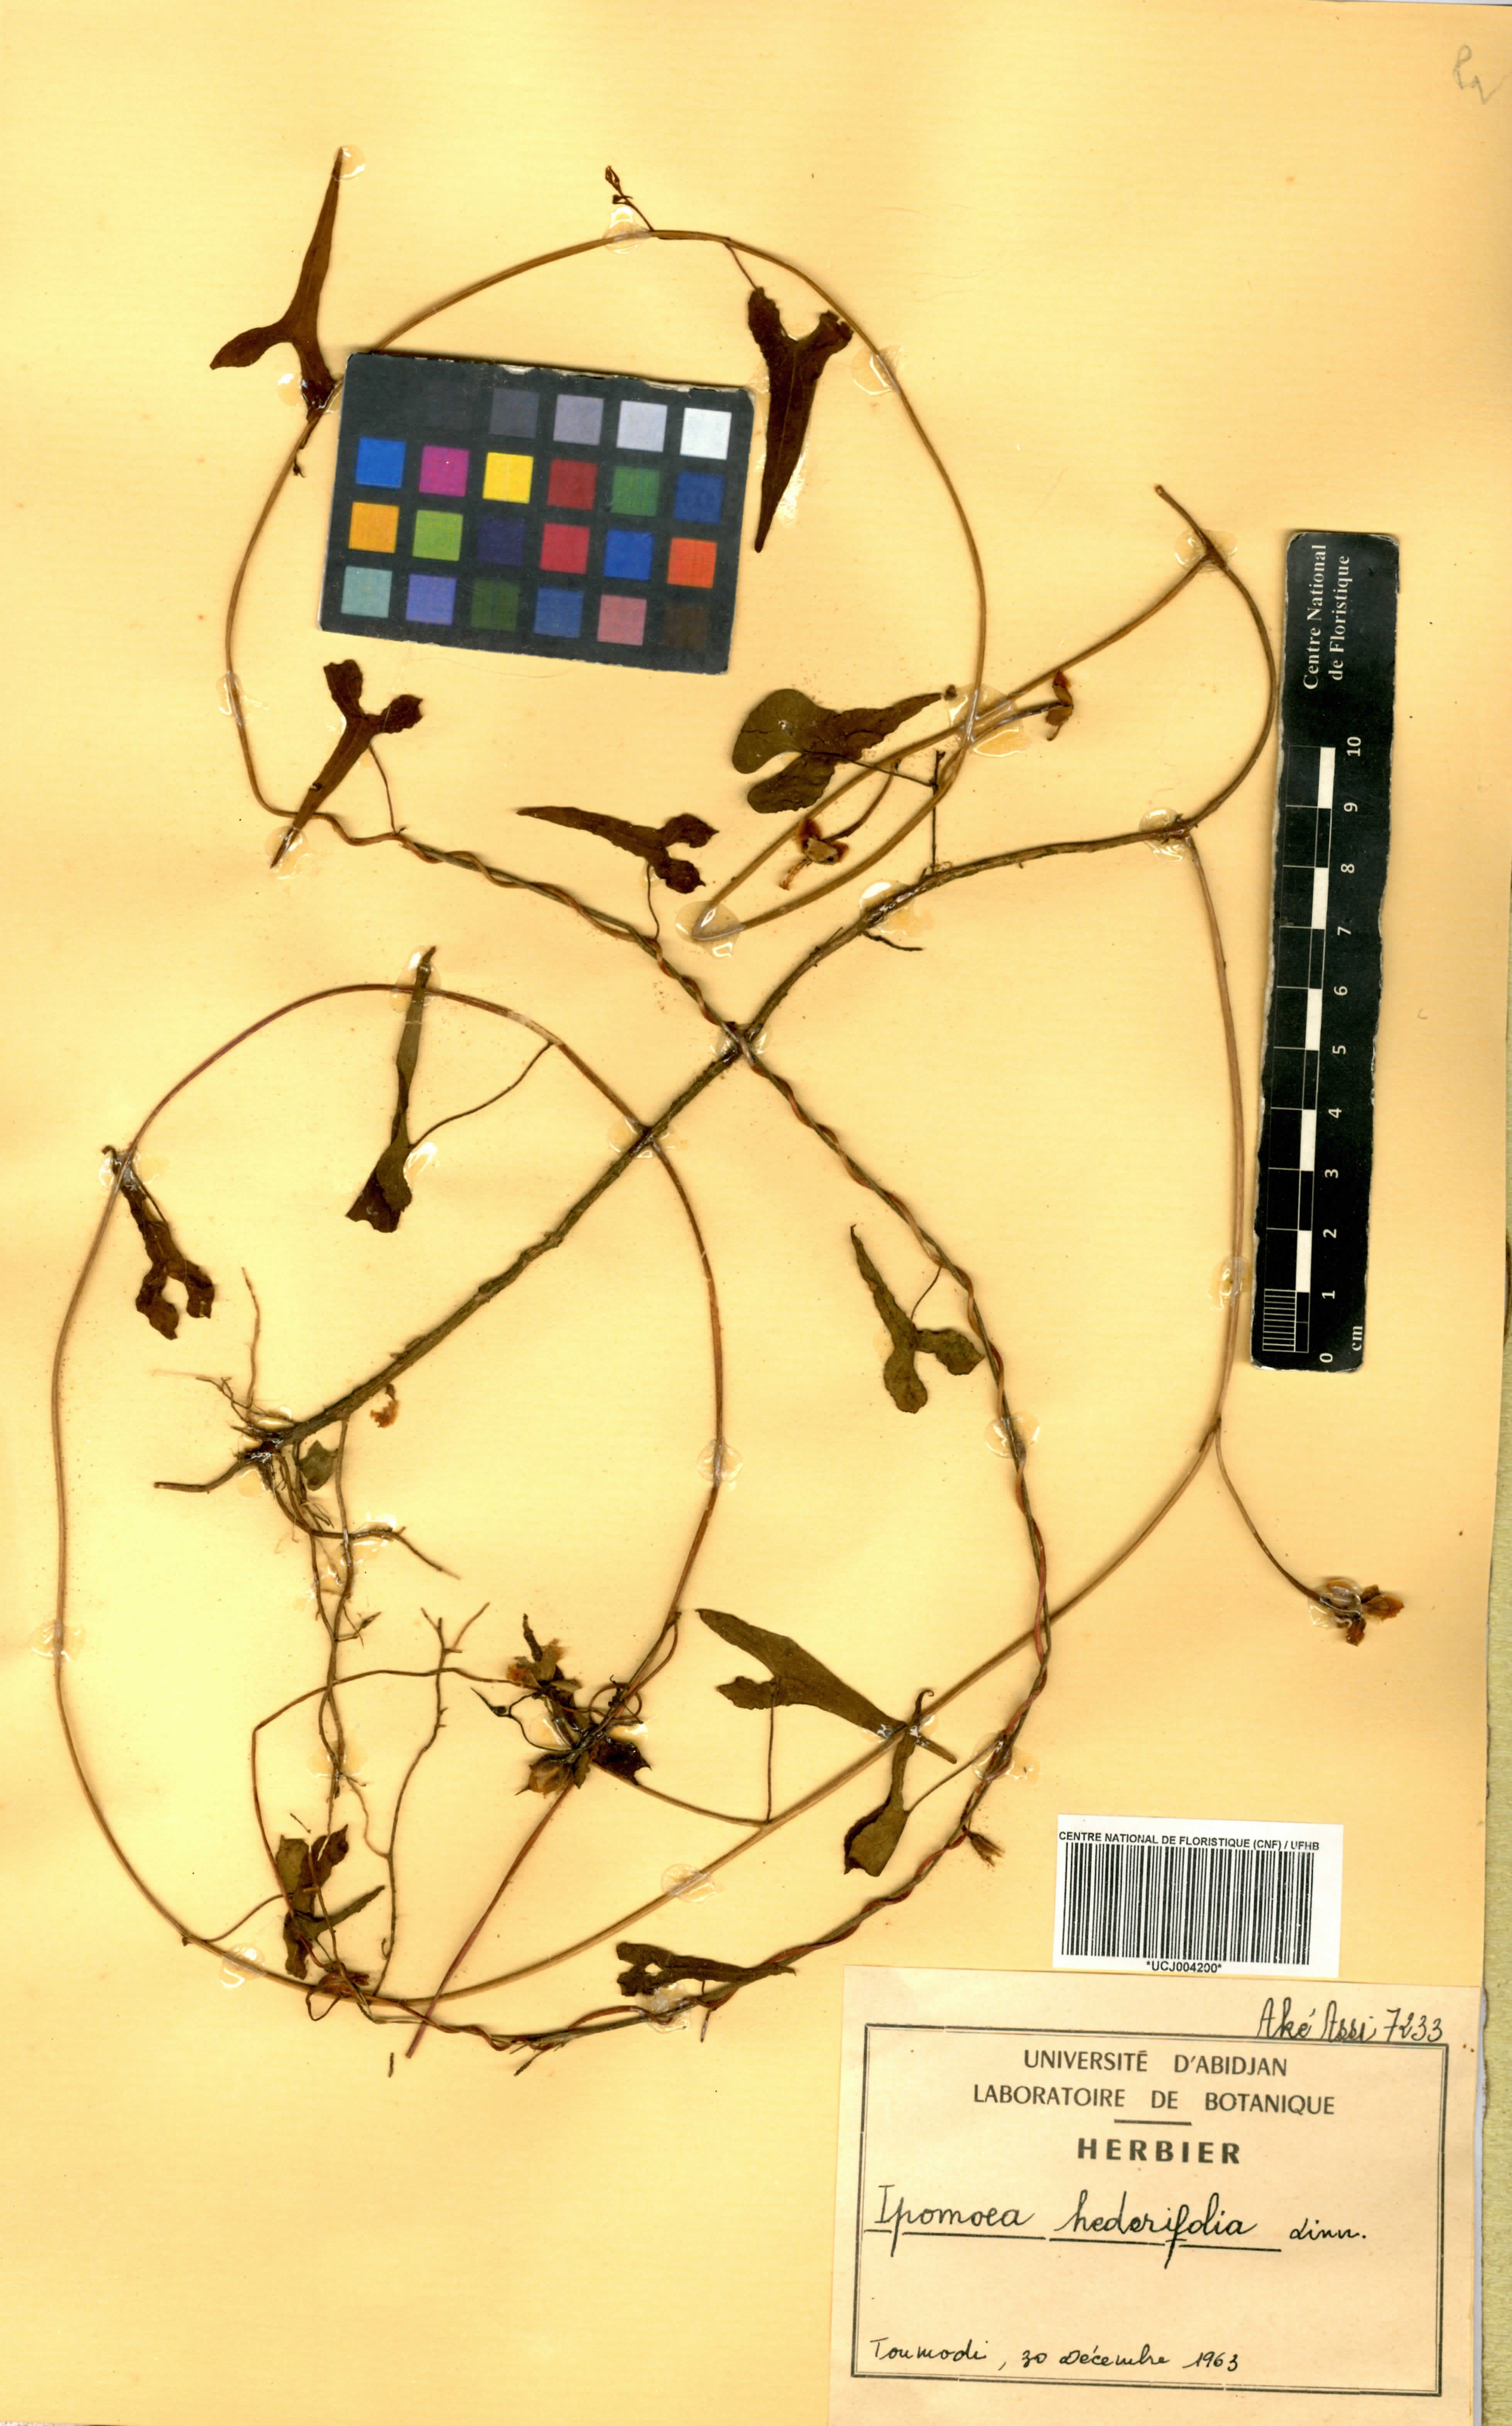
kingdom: Plantae
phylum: Tracheophyta
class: Magnoliopsida
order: Solanales
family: Convolvulaceae
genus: Ipomoea
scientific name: Ipomoea hederifolia
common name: Ivy-leaf morning-glory
